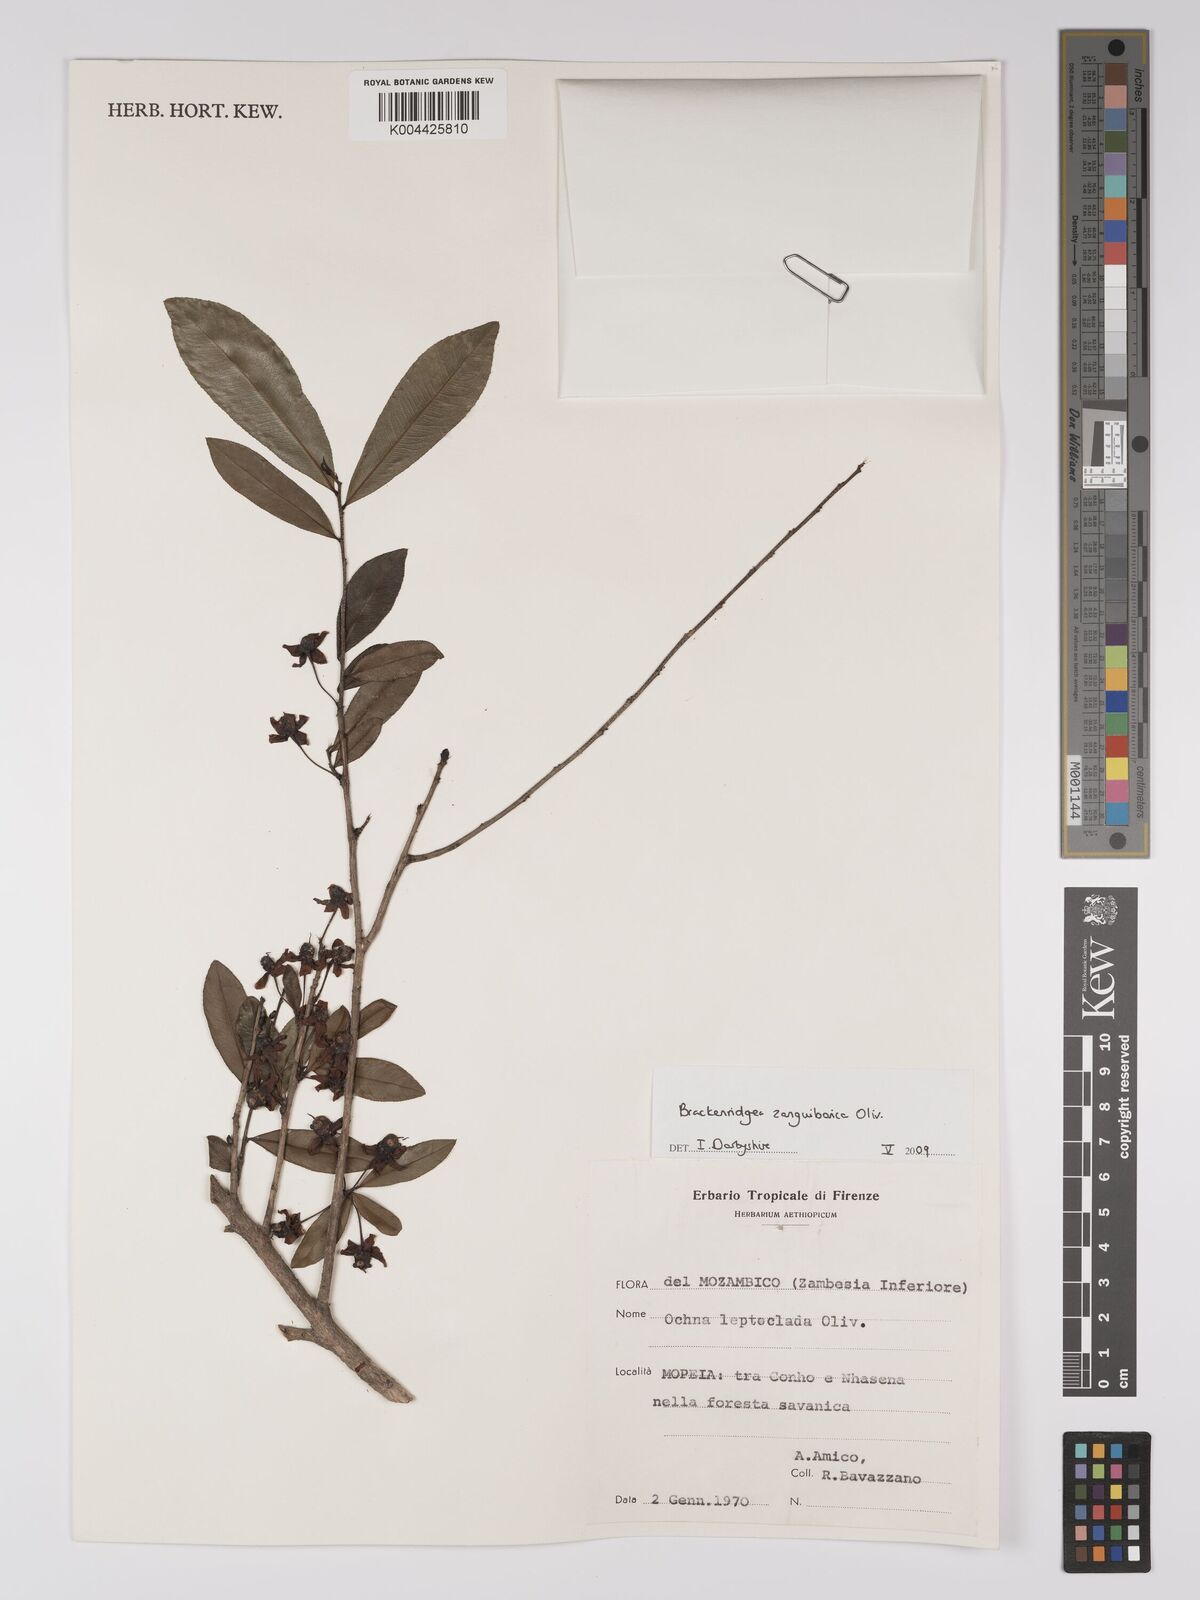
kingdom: Plantae
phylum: Tracheophyta
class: Magnoliopsida
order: Malpighiales
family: Ochnaceae
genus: Brackenridgea
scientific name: Brackenridgea zanguebarica
